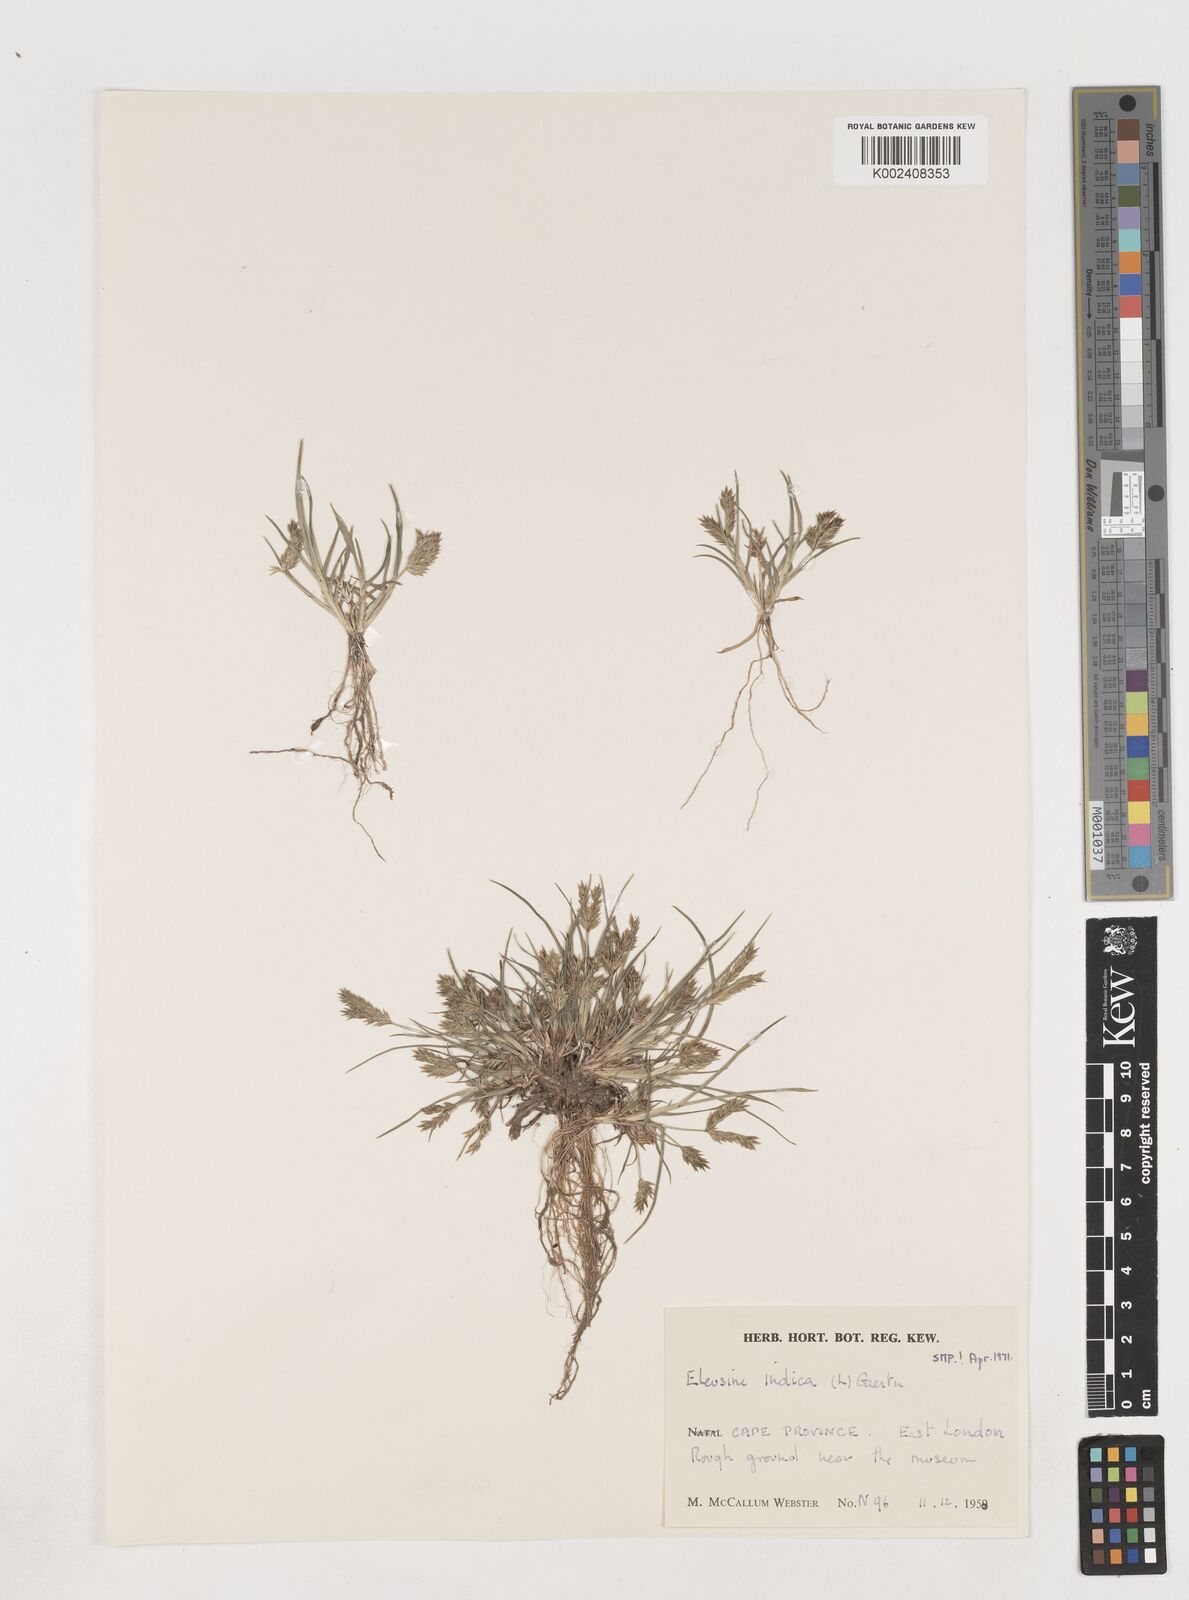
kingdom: Plantae
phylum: Tracheophyta
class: Liliopsida
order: Poales
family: Poaceae
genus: Eleusine
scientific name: Eleusine indica
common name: Yard-grass
